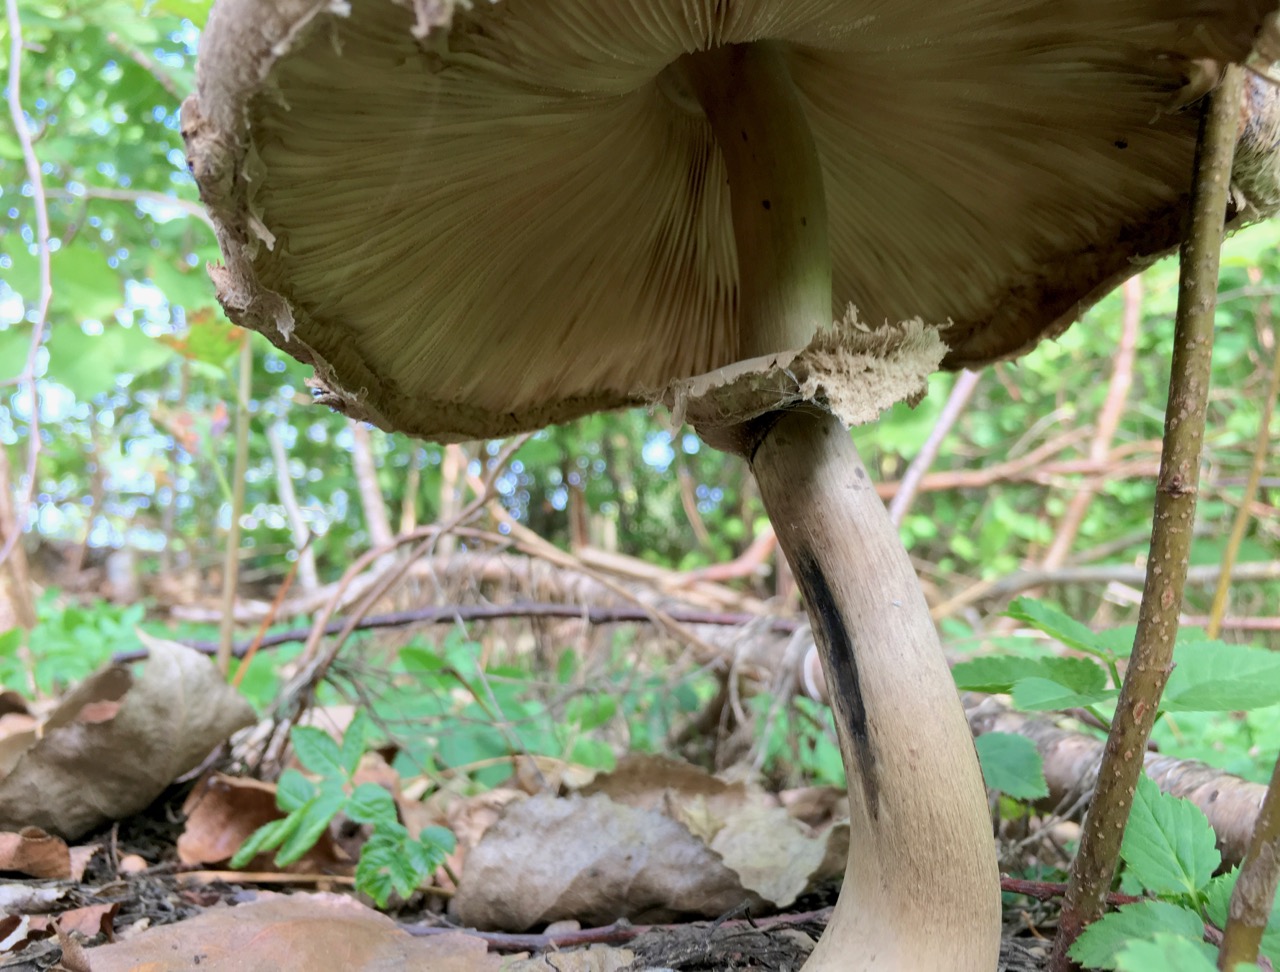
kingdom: Fungi
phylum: Basidiomycota
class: Agaricomycetes
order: Agaricales
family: Agaricaceae
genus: Chlorophyllum
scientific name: Chlorophyllum rhacodes
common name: ægte rabarberhat
